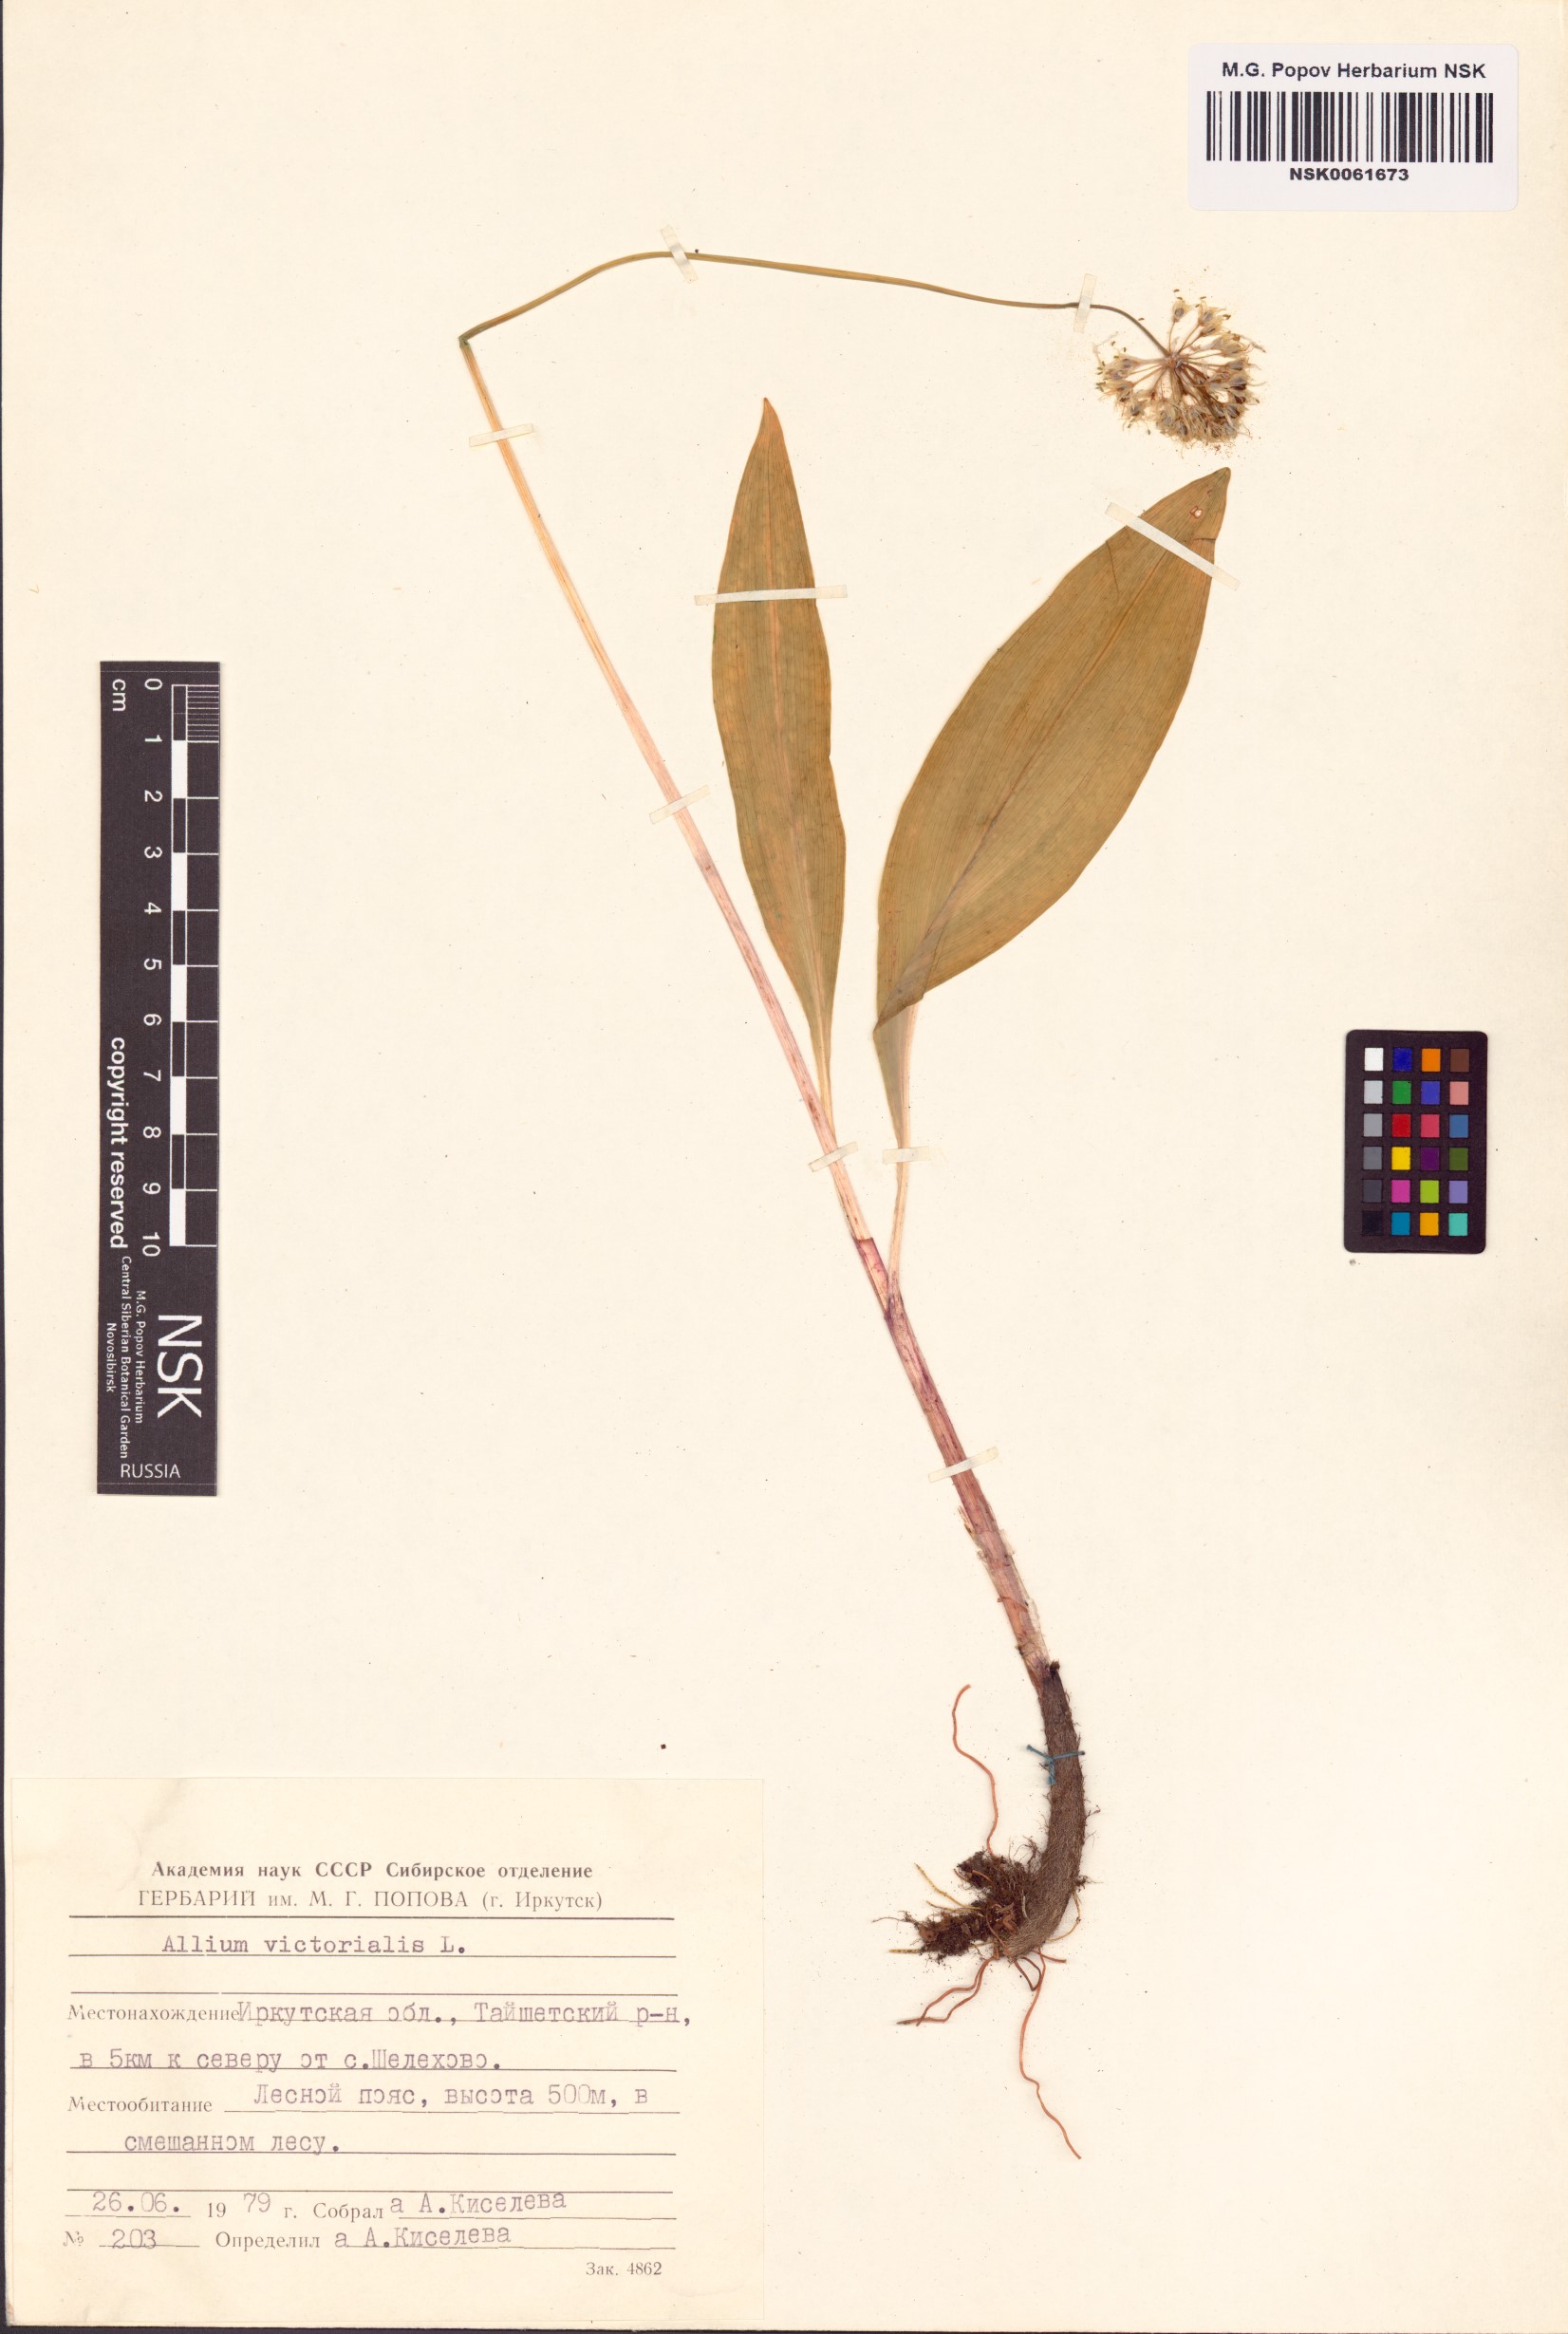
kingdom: Plantae
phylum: Tracheophyta
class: Liliopsida
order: Asparagales
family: Amaryllidaceae
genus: Allium
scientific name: Allium victorialis
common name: Alpine leek
